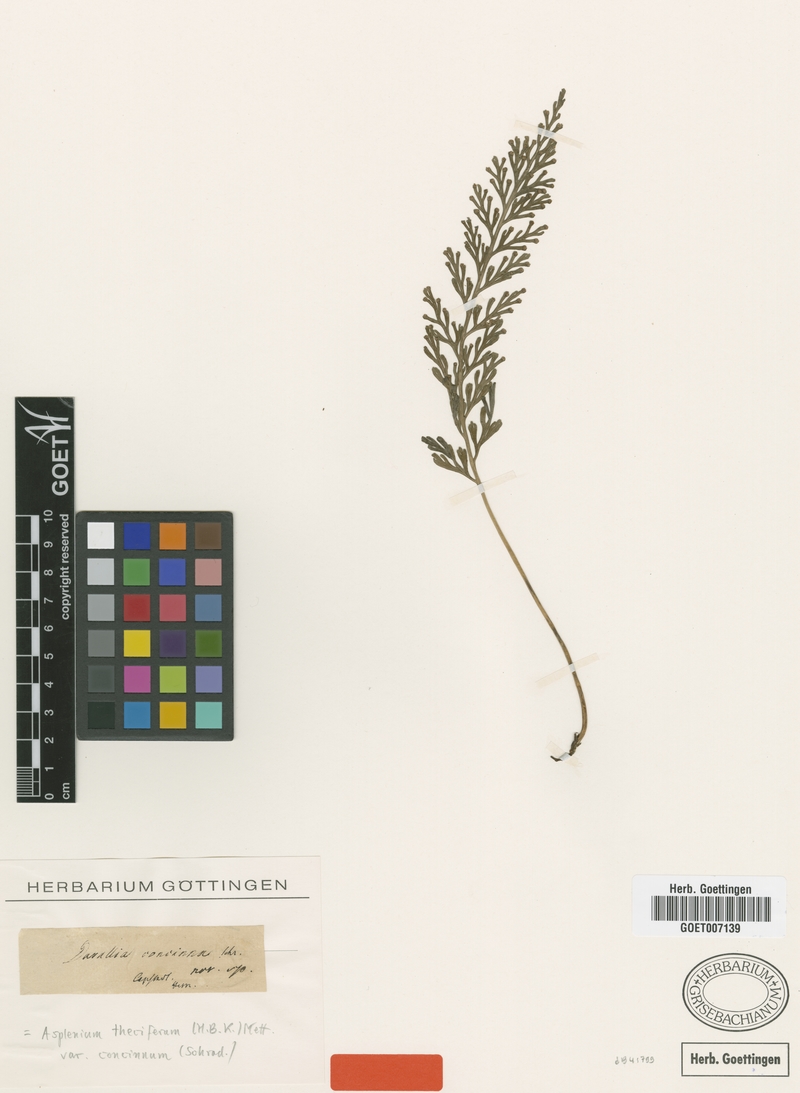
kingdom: Plantae
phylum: Tracheophyta
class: Polypodiopsida
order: Polypodiales
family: Aspleniaceae
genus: Asplenium
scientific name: Asplenium theciferum
